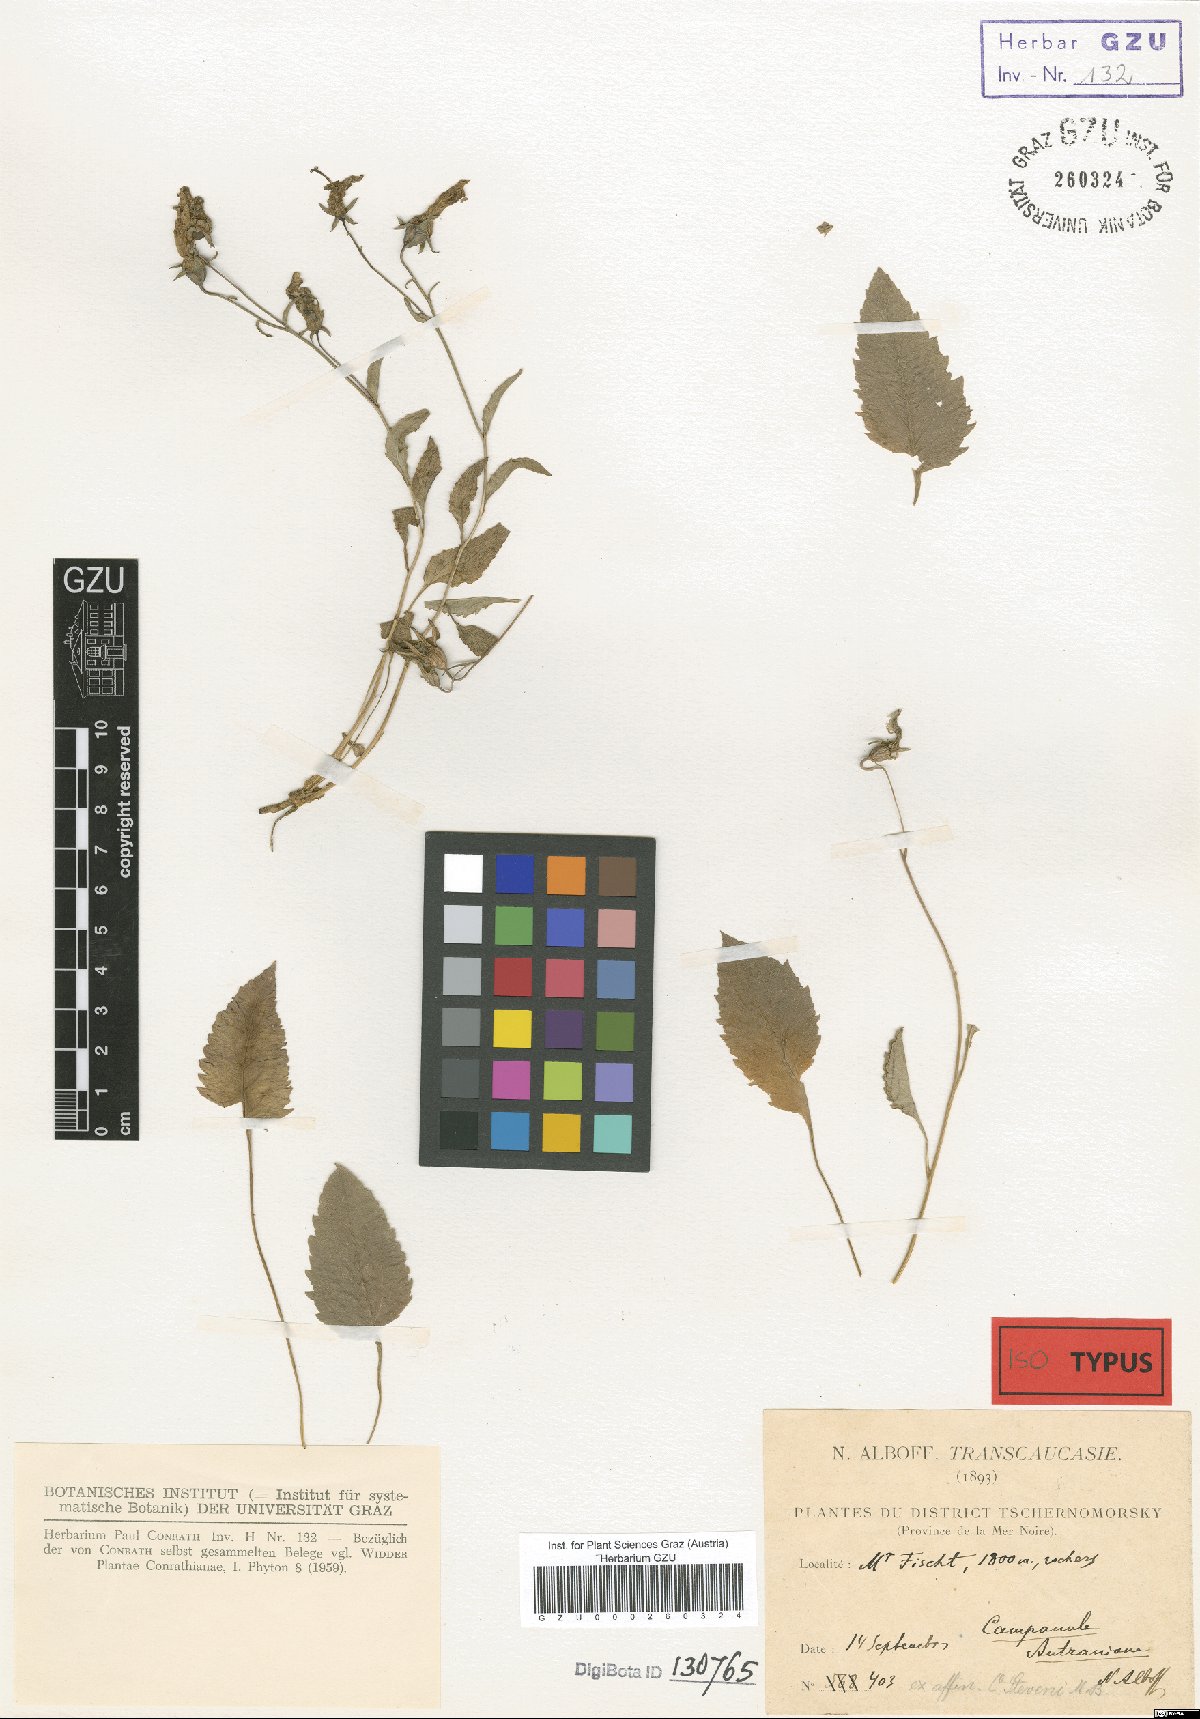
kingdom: Plantae
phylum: Tracheophyta
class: Magnoliopsida
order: Asterales
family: Campanulaceae
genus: Campanula
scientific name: Campanula autraniana
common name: Autran's campanula
